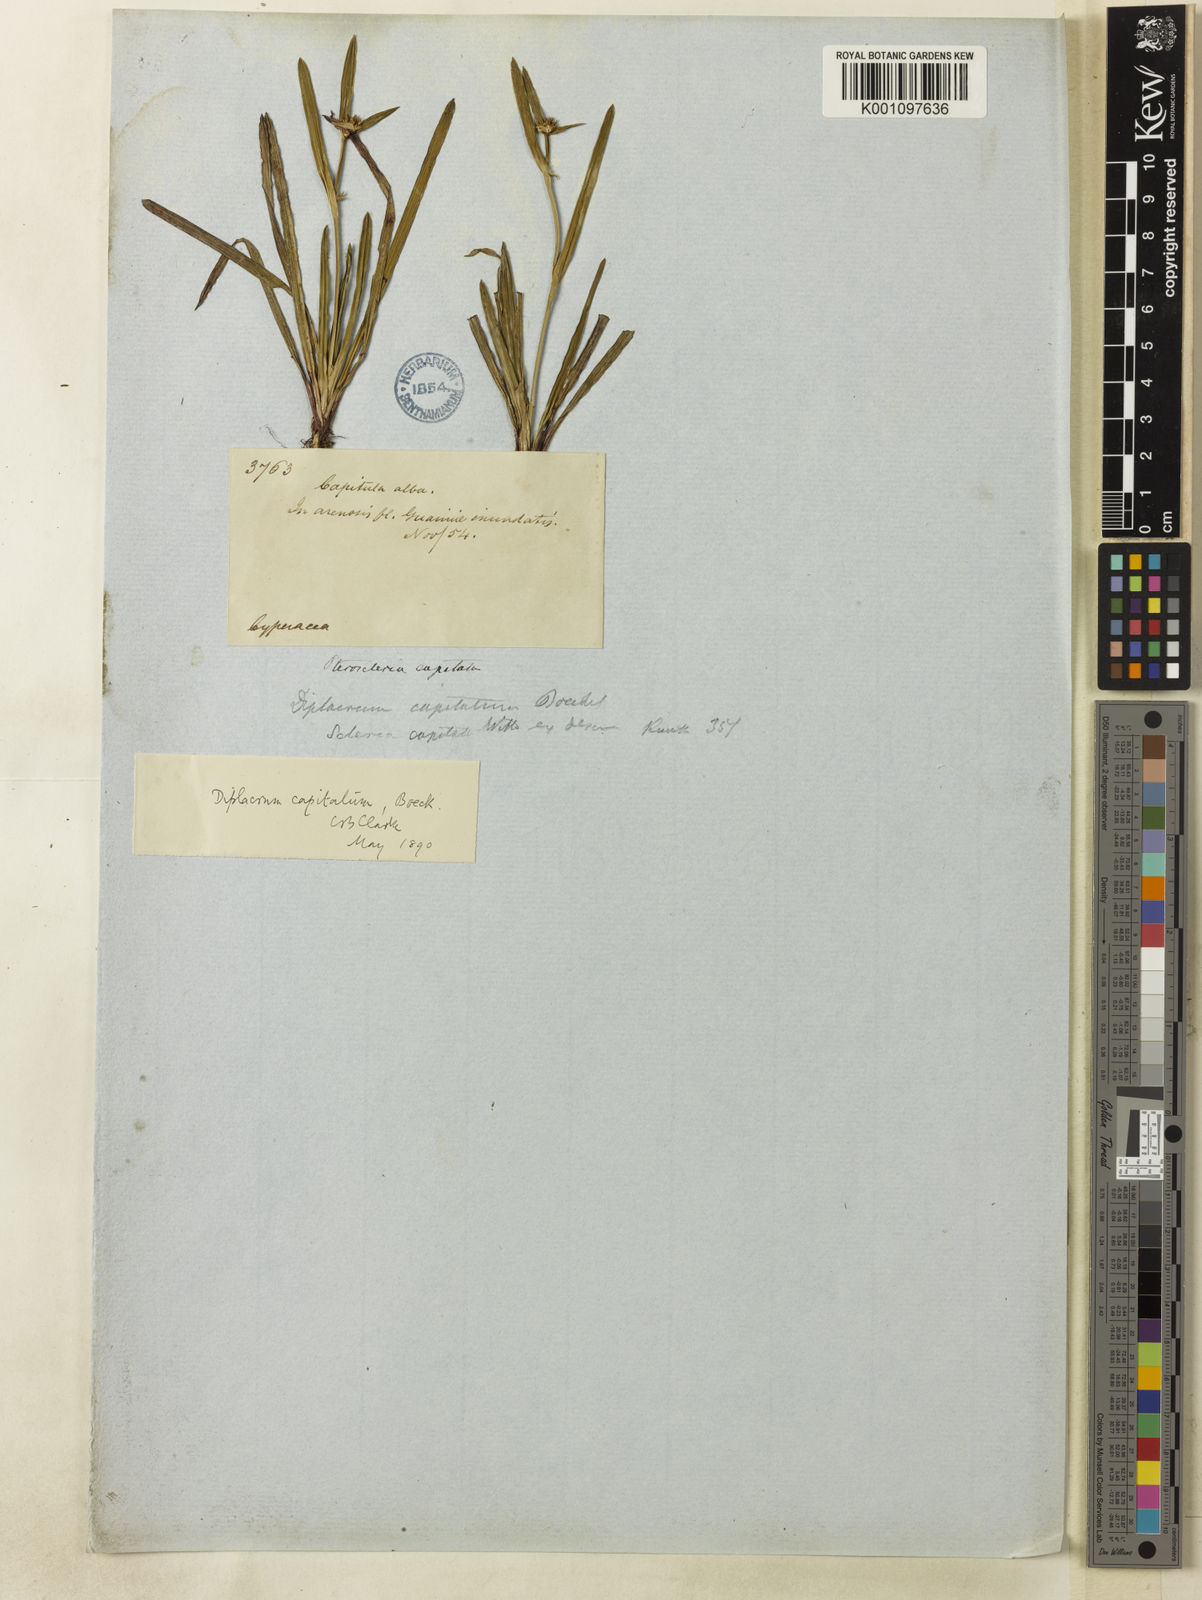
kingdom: Plantae
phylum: Tracheophyta
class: Liliopsida
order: Poales
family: Cyperaceae
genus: Diplacrum
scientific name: Diplacrum capitatum
